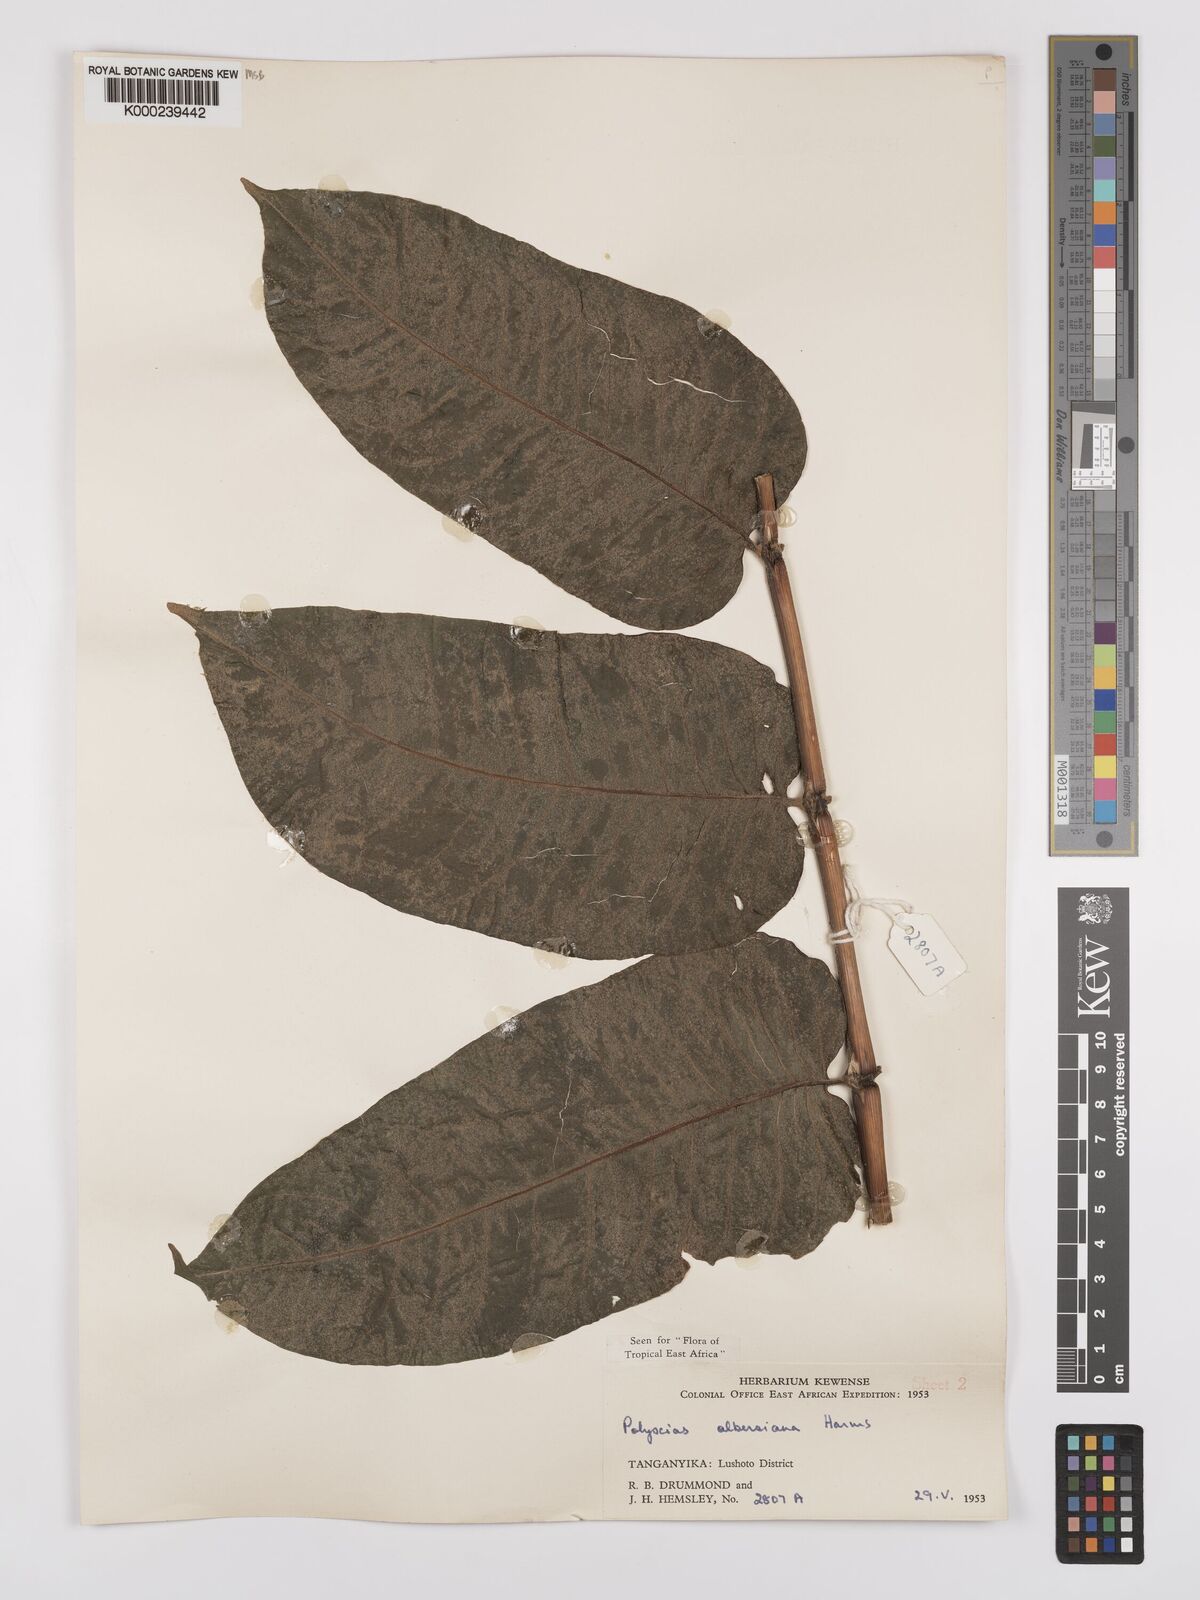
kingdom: Plantae
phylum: Tracheophyta
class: Magnoliopsida
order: Apiales
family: Araliaceae
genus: Polyscias
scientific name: Polyscias albersiana
